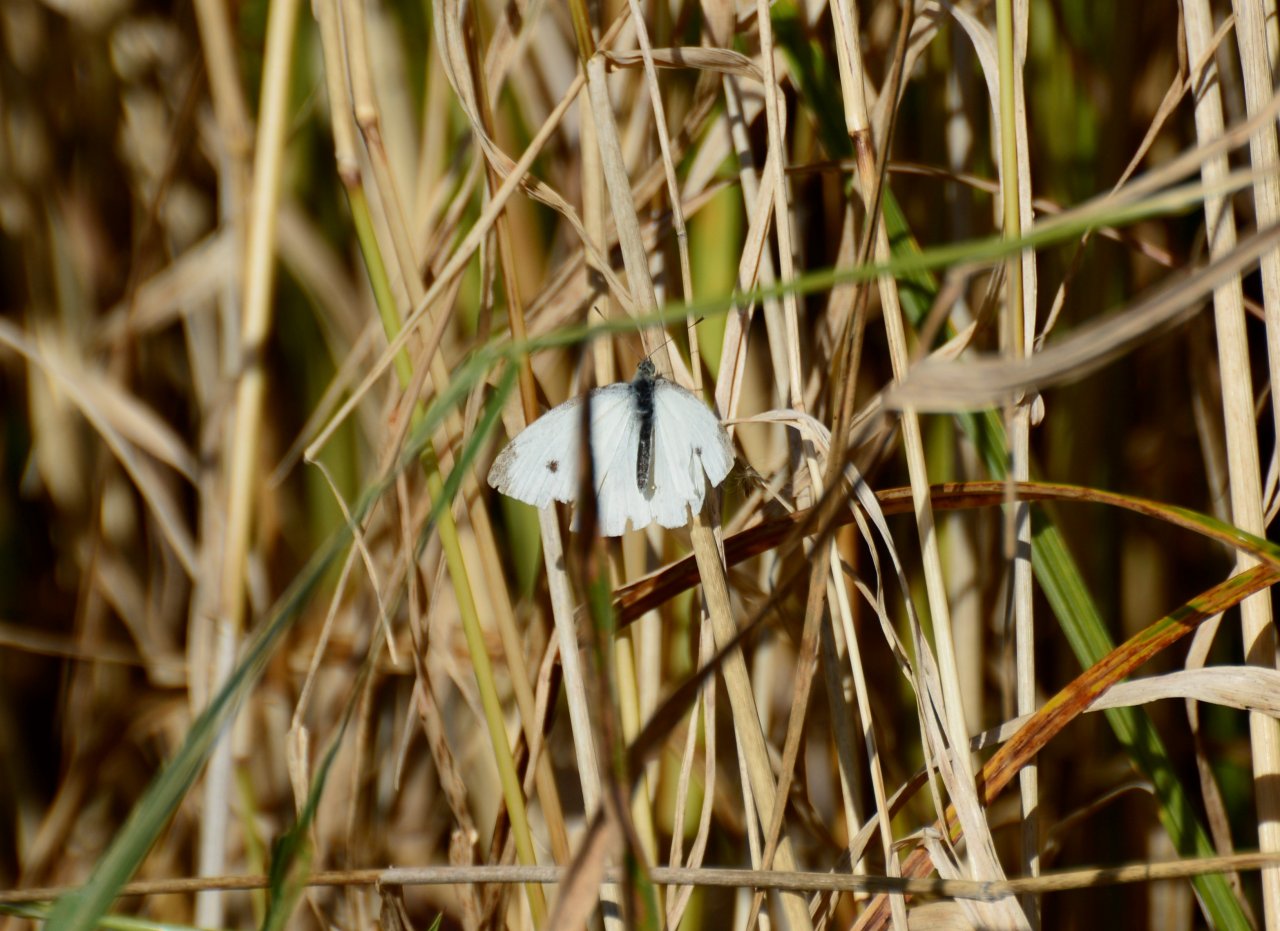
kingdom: Animalia
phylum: Arthropoda
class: Insecta
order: Lepidoptera
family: Pieridae
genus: Pieris
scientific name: Pieris rapae
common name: Cabbage White
